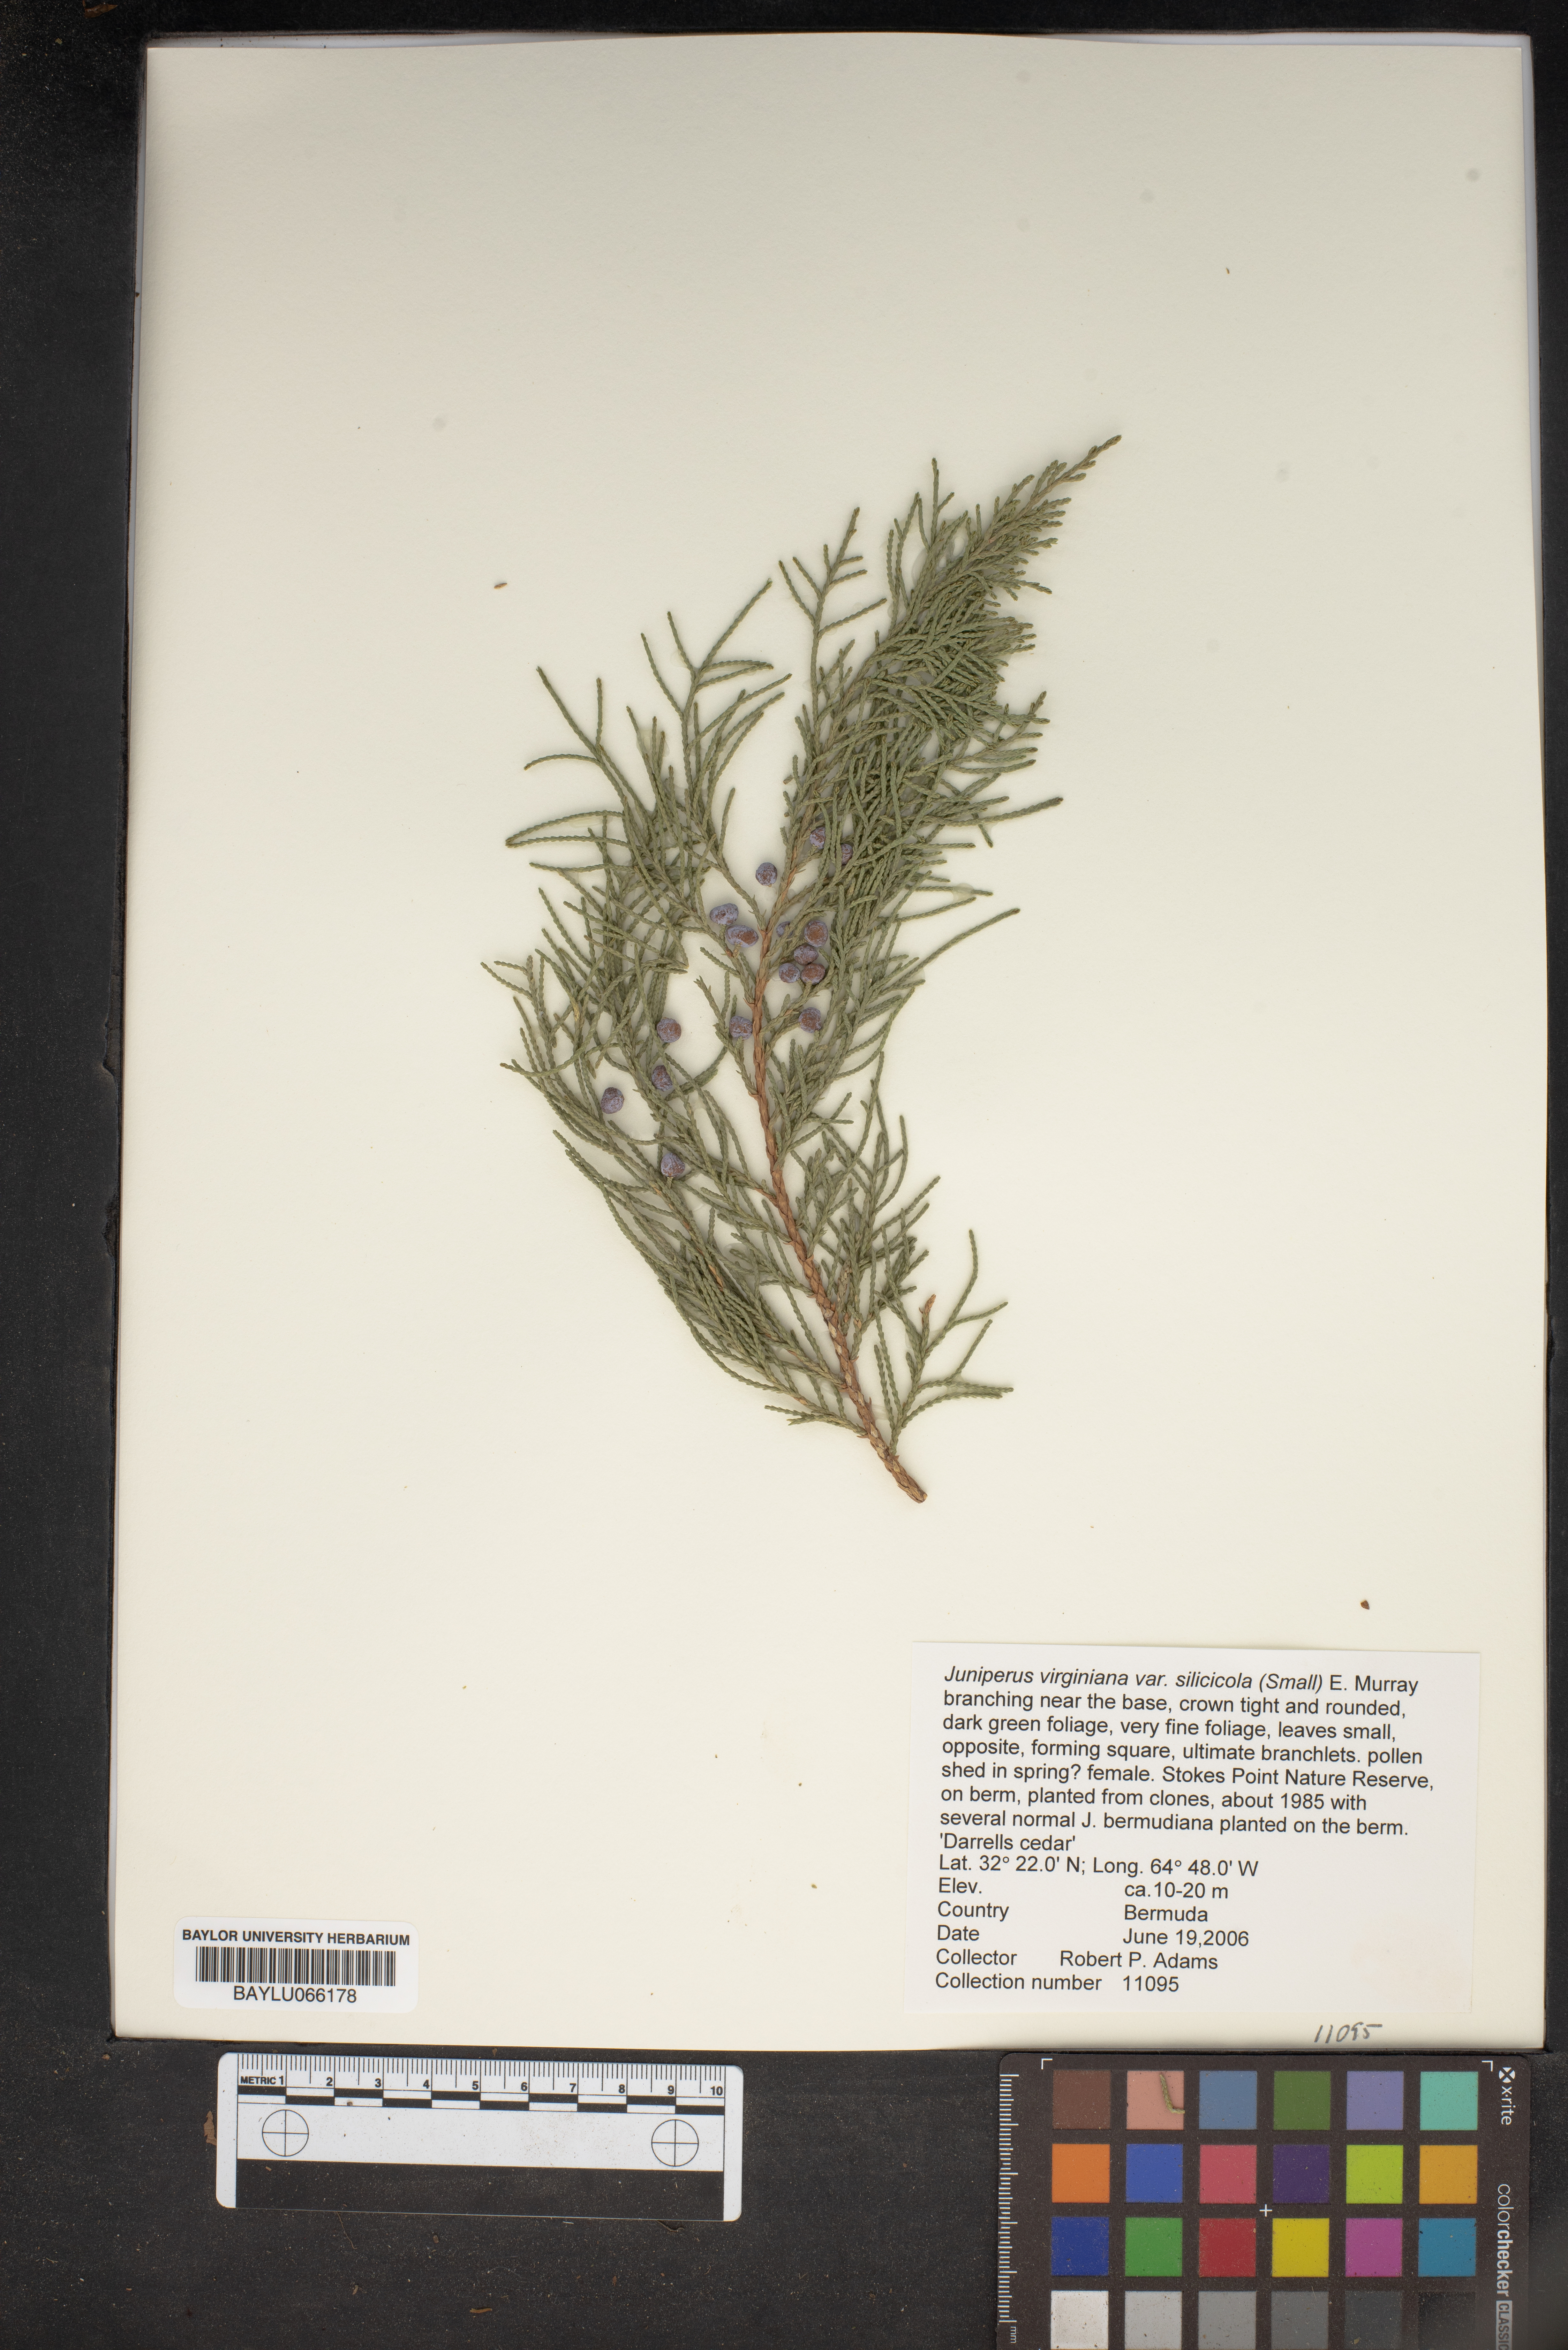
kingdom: Plantae
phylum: Tracheophyta
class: Pinopsida
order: Pinales
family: Cupressaceae
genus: Juniperus
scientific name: Juniperus virginiana
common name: Red juniper
